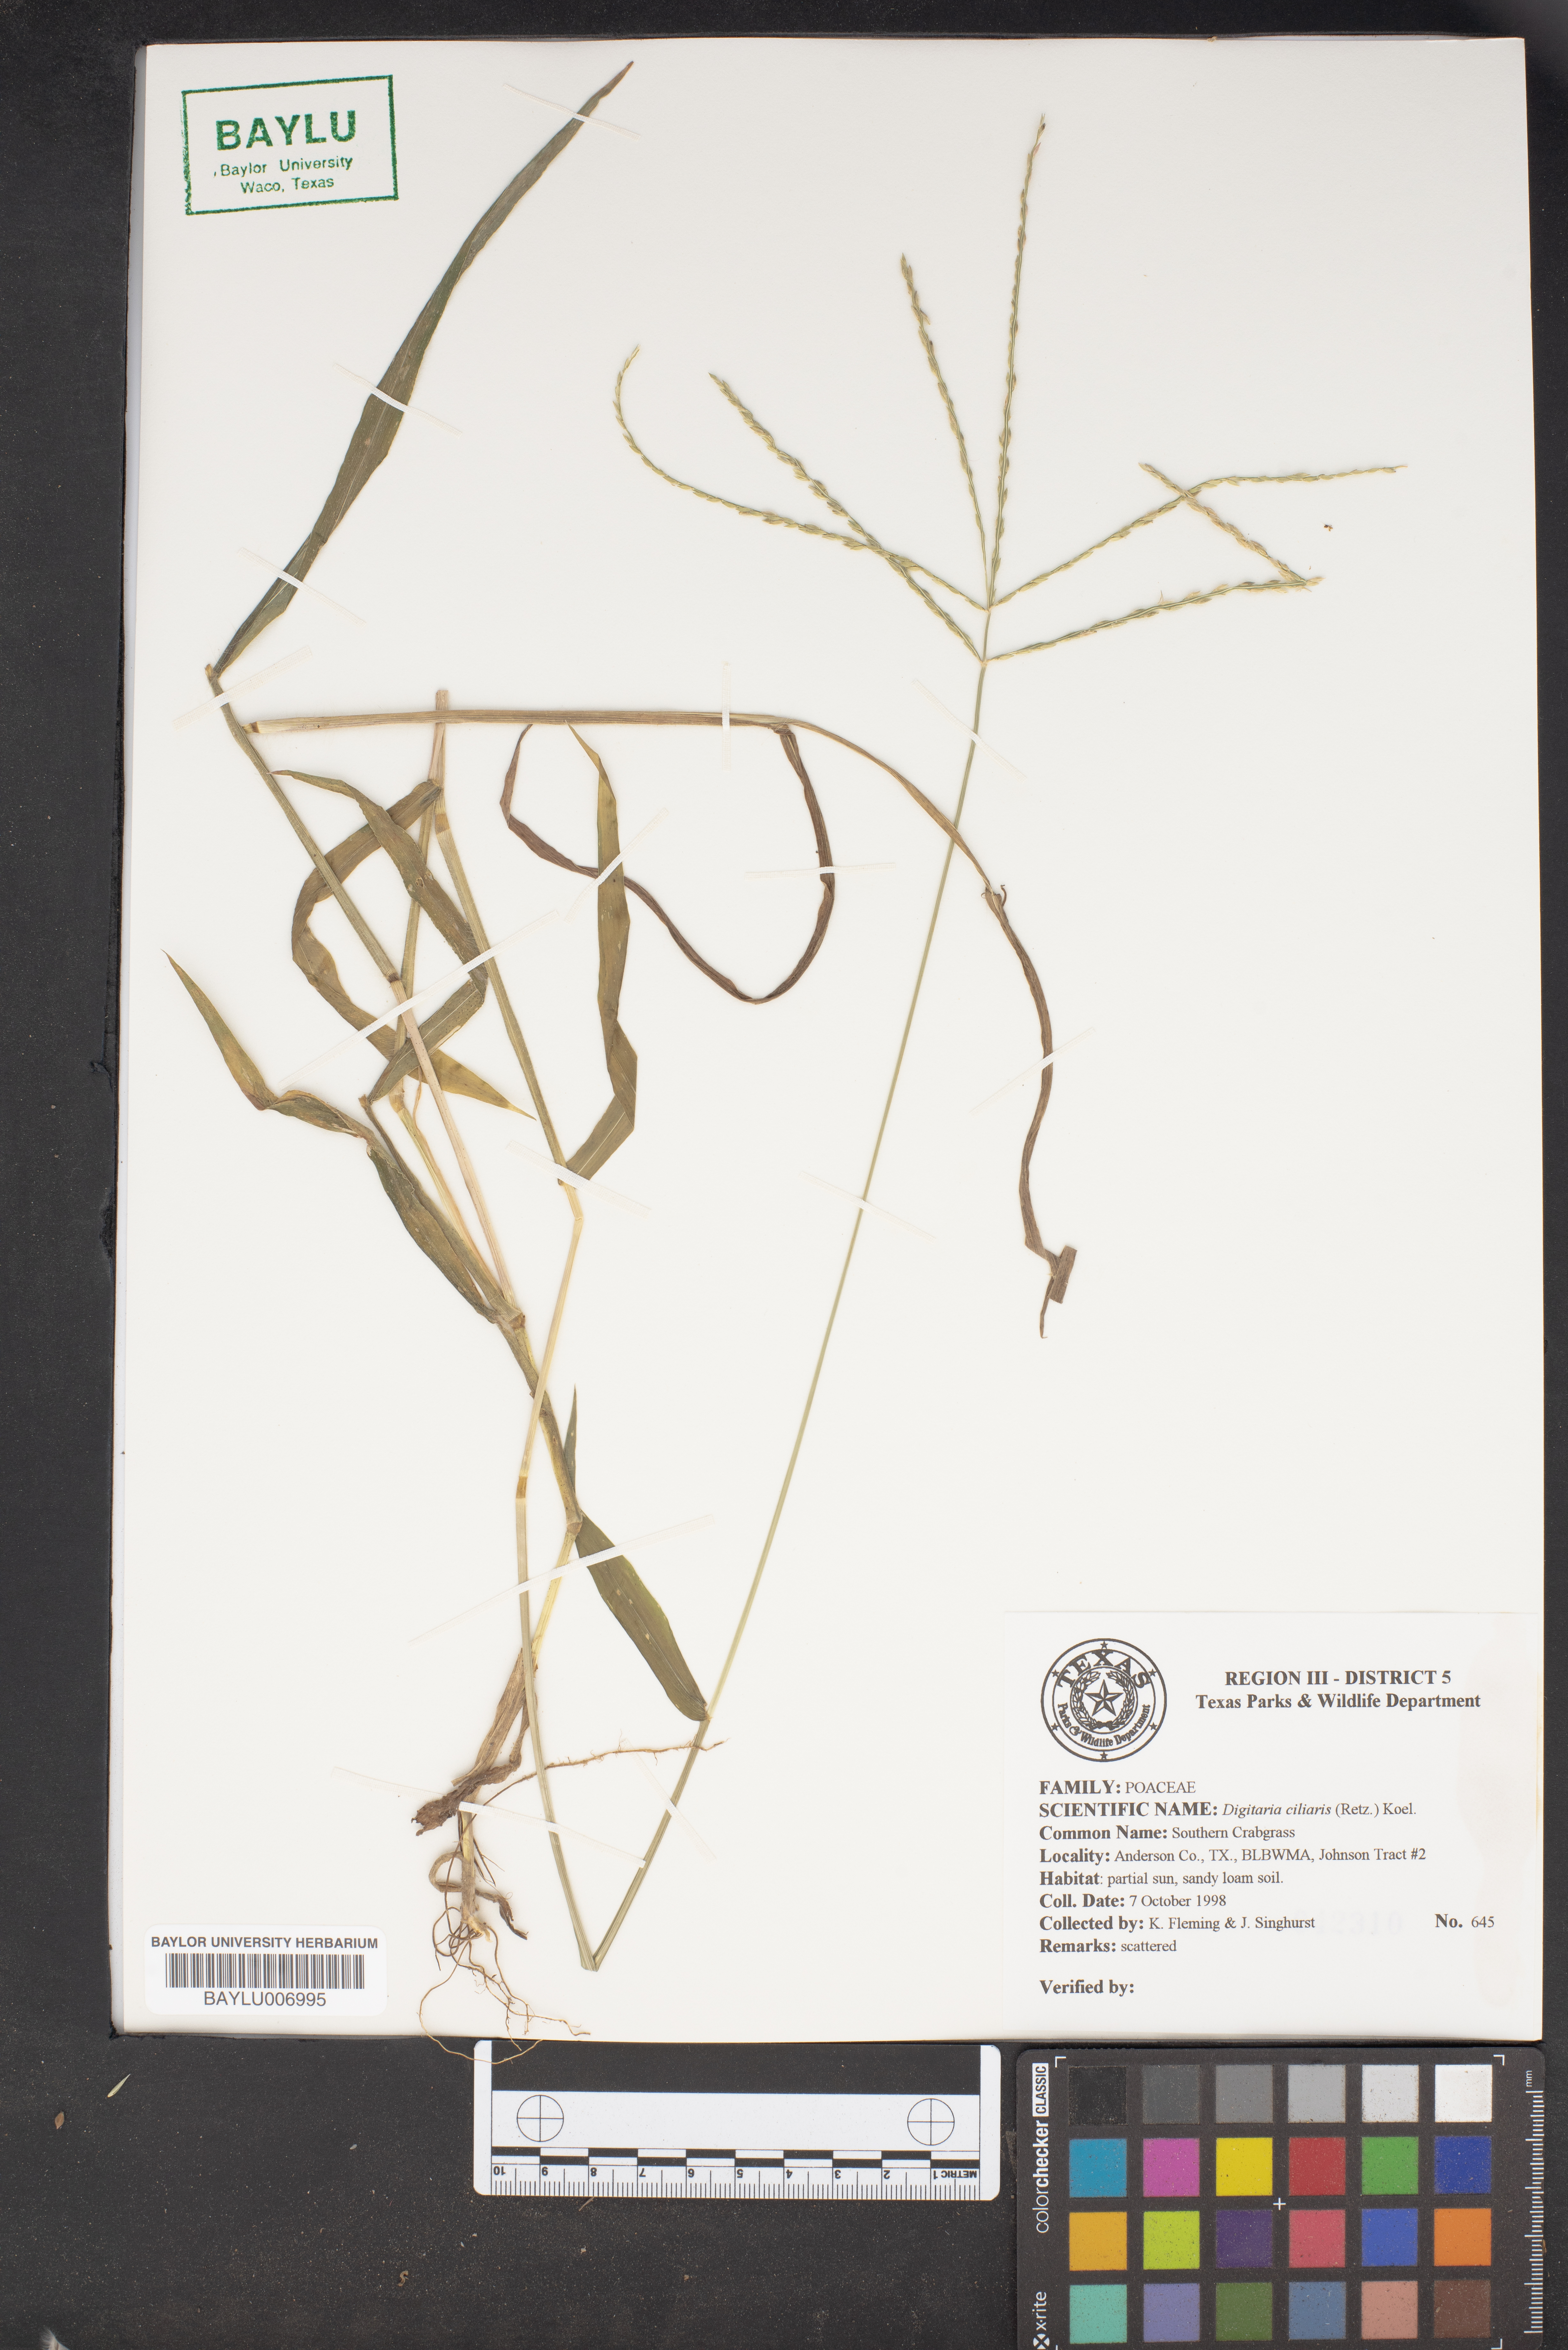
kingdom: Plantae
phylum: Tracheophyta
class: Liliopsida
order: Poales
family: Poaceae
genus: Digitaria
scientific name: Digitaria ciliaris
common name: Tropical finger-grass
